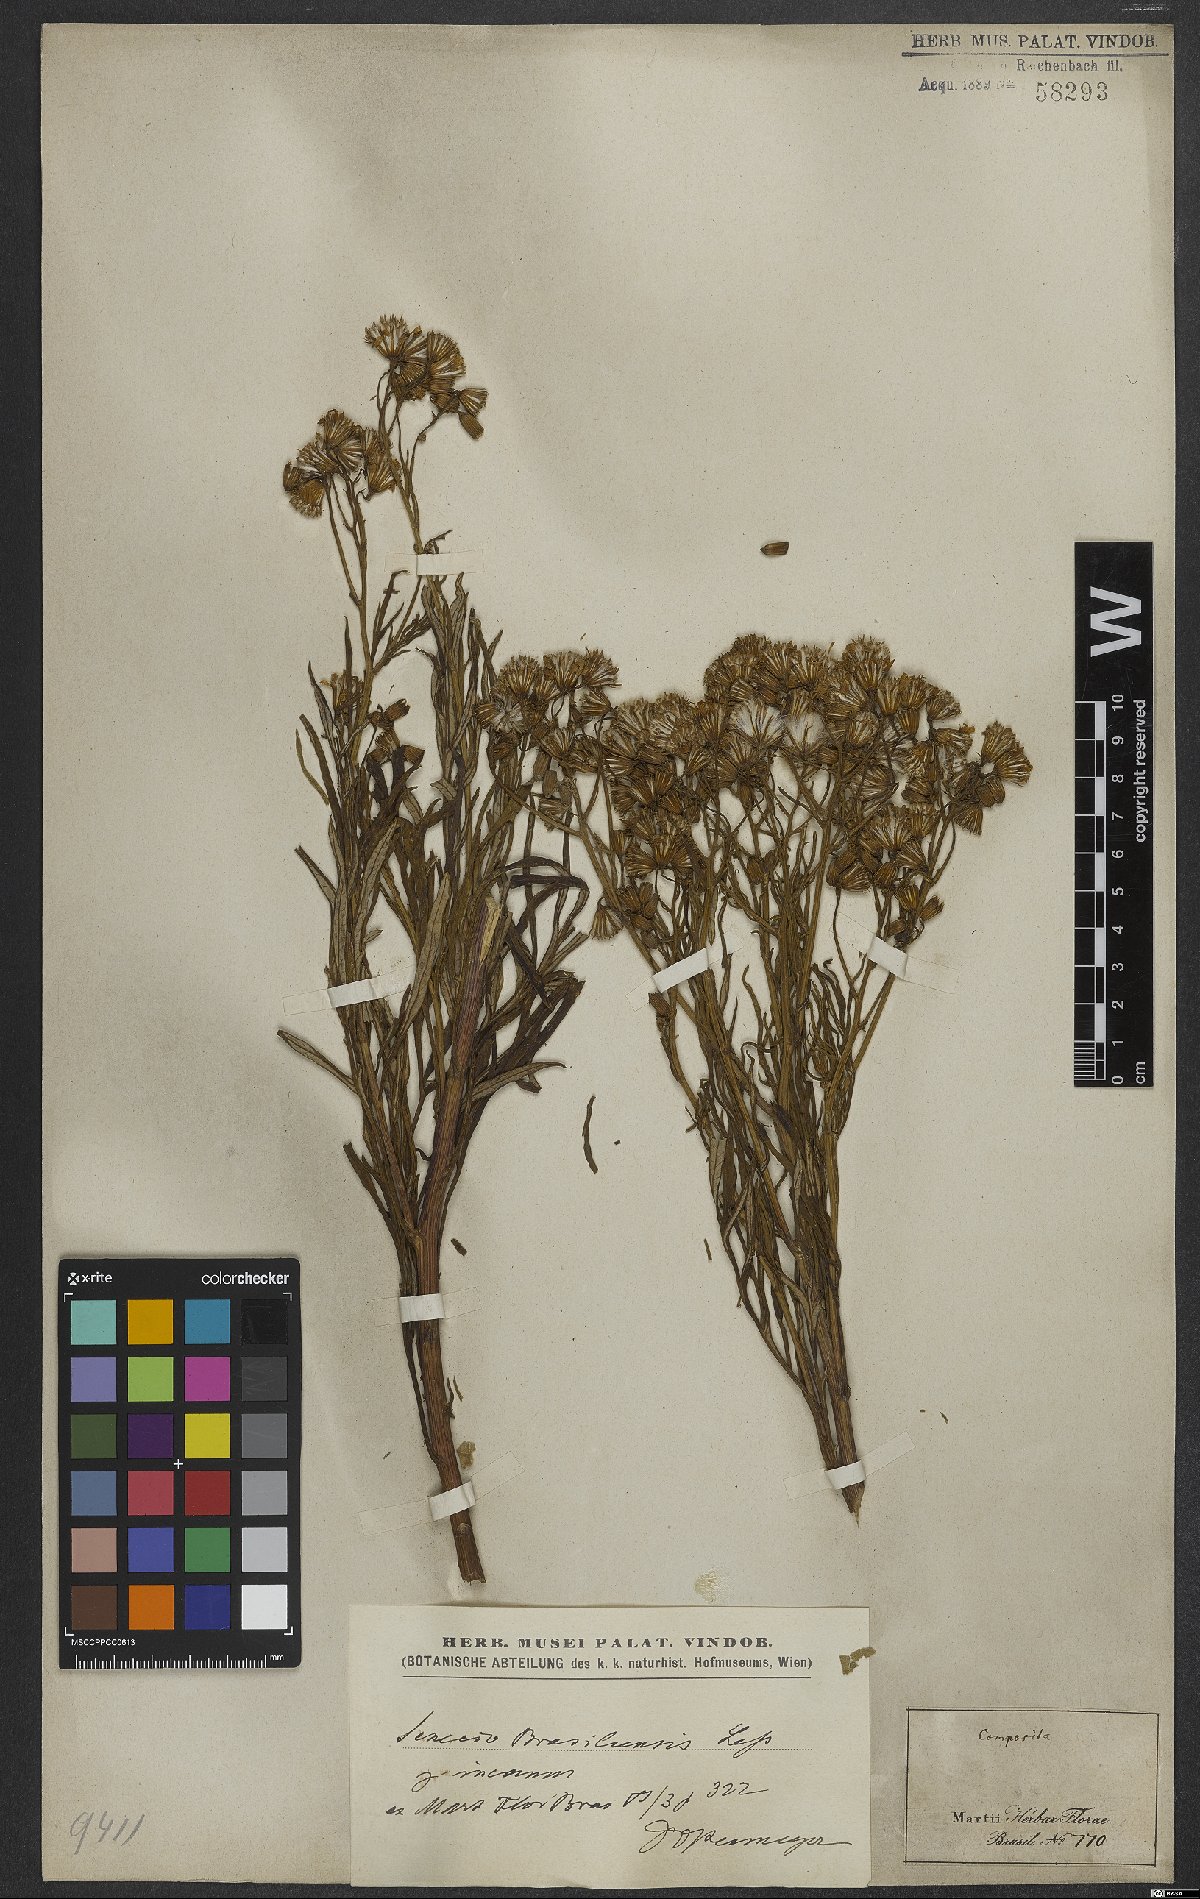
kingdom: Plantae
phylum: Tracheophyta
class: Magnoliopsida
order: Asterales
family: Asteraceae
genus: Senecio
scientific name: Senecio brasiliensis
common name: Hemp-leaf ragwort
